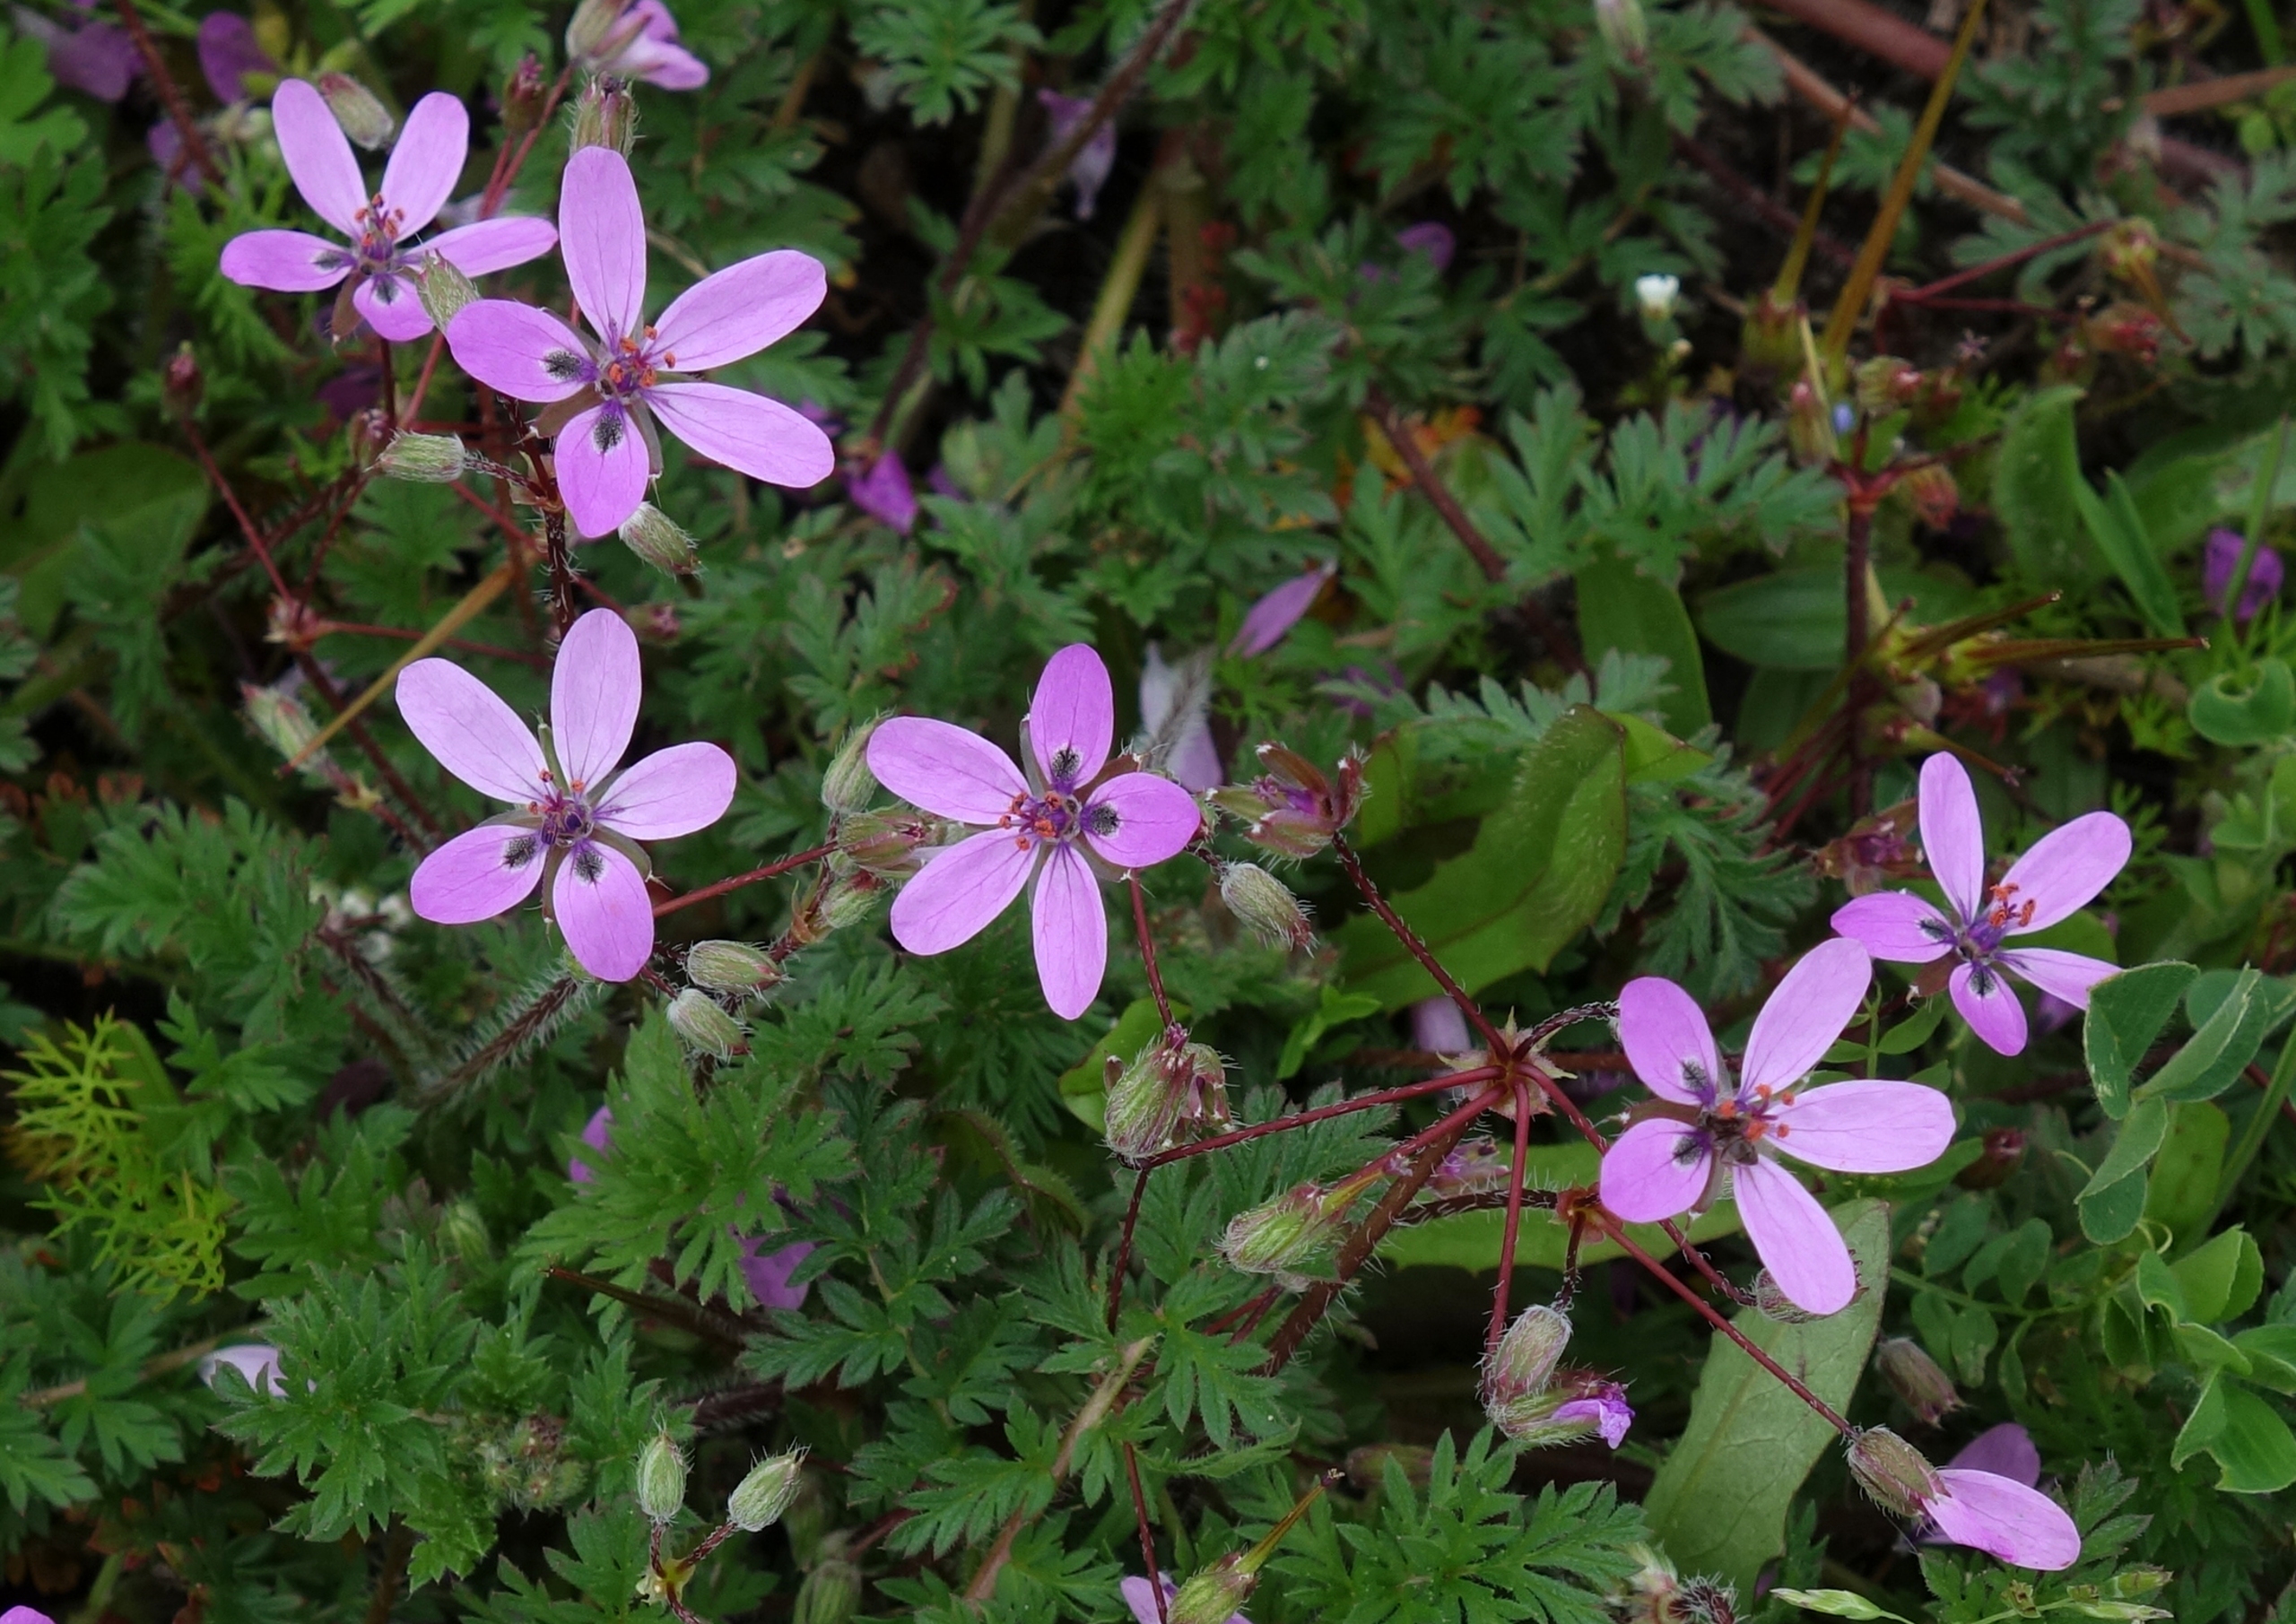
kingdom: Plantae
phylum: Tracheophyta
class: Magnoliopsida
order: Geraniales
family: Geraniaceae
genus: Erodium
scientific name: Erodium cicutarium
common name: Hejrenæb
